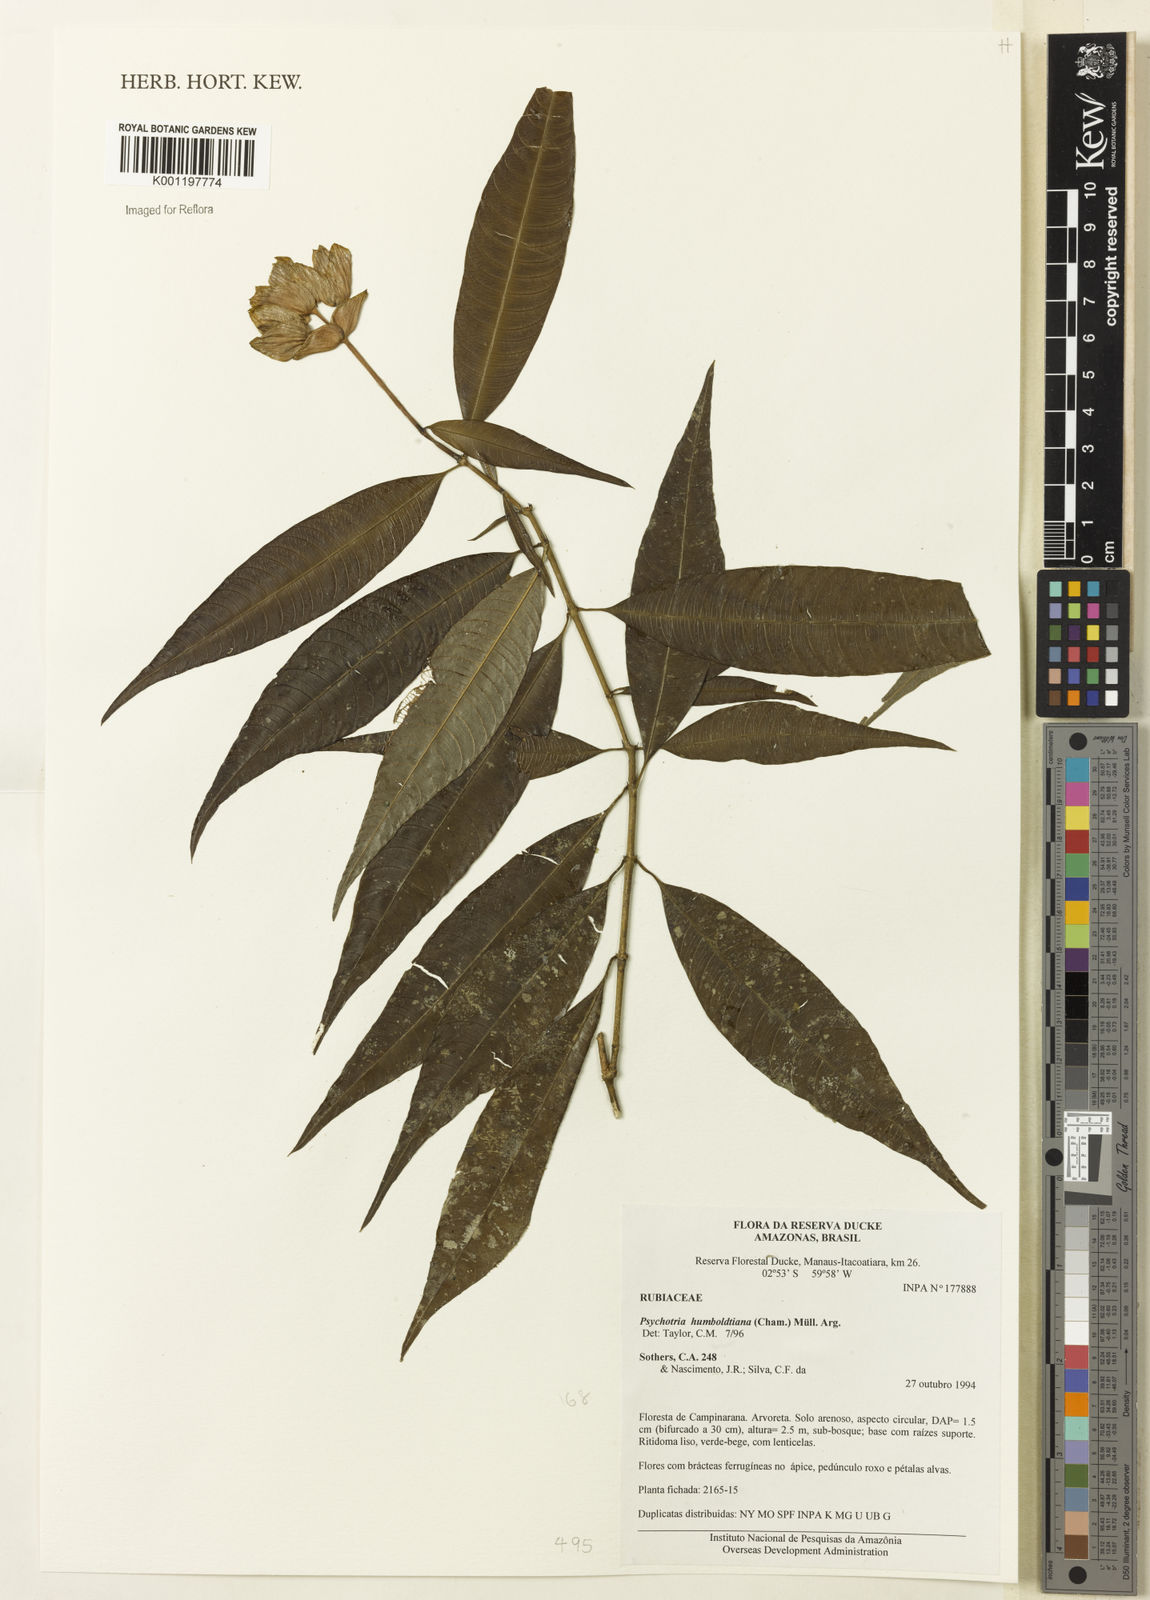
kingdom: Plantae
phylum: Tracheophyta
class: Magnoliopsida
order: Gentianales
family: Rubiaceae
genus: Psychotria
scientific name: Psychotria
